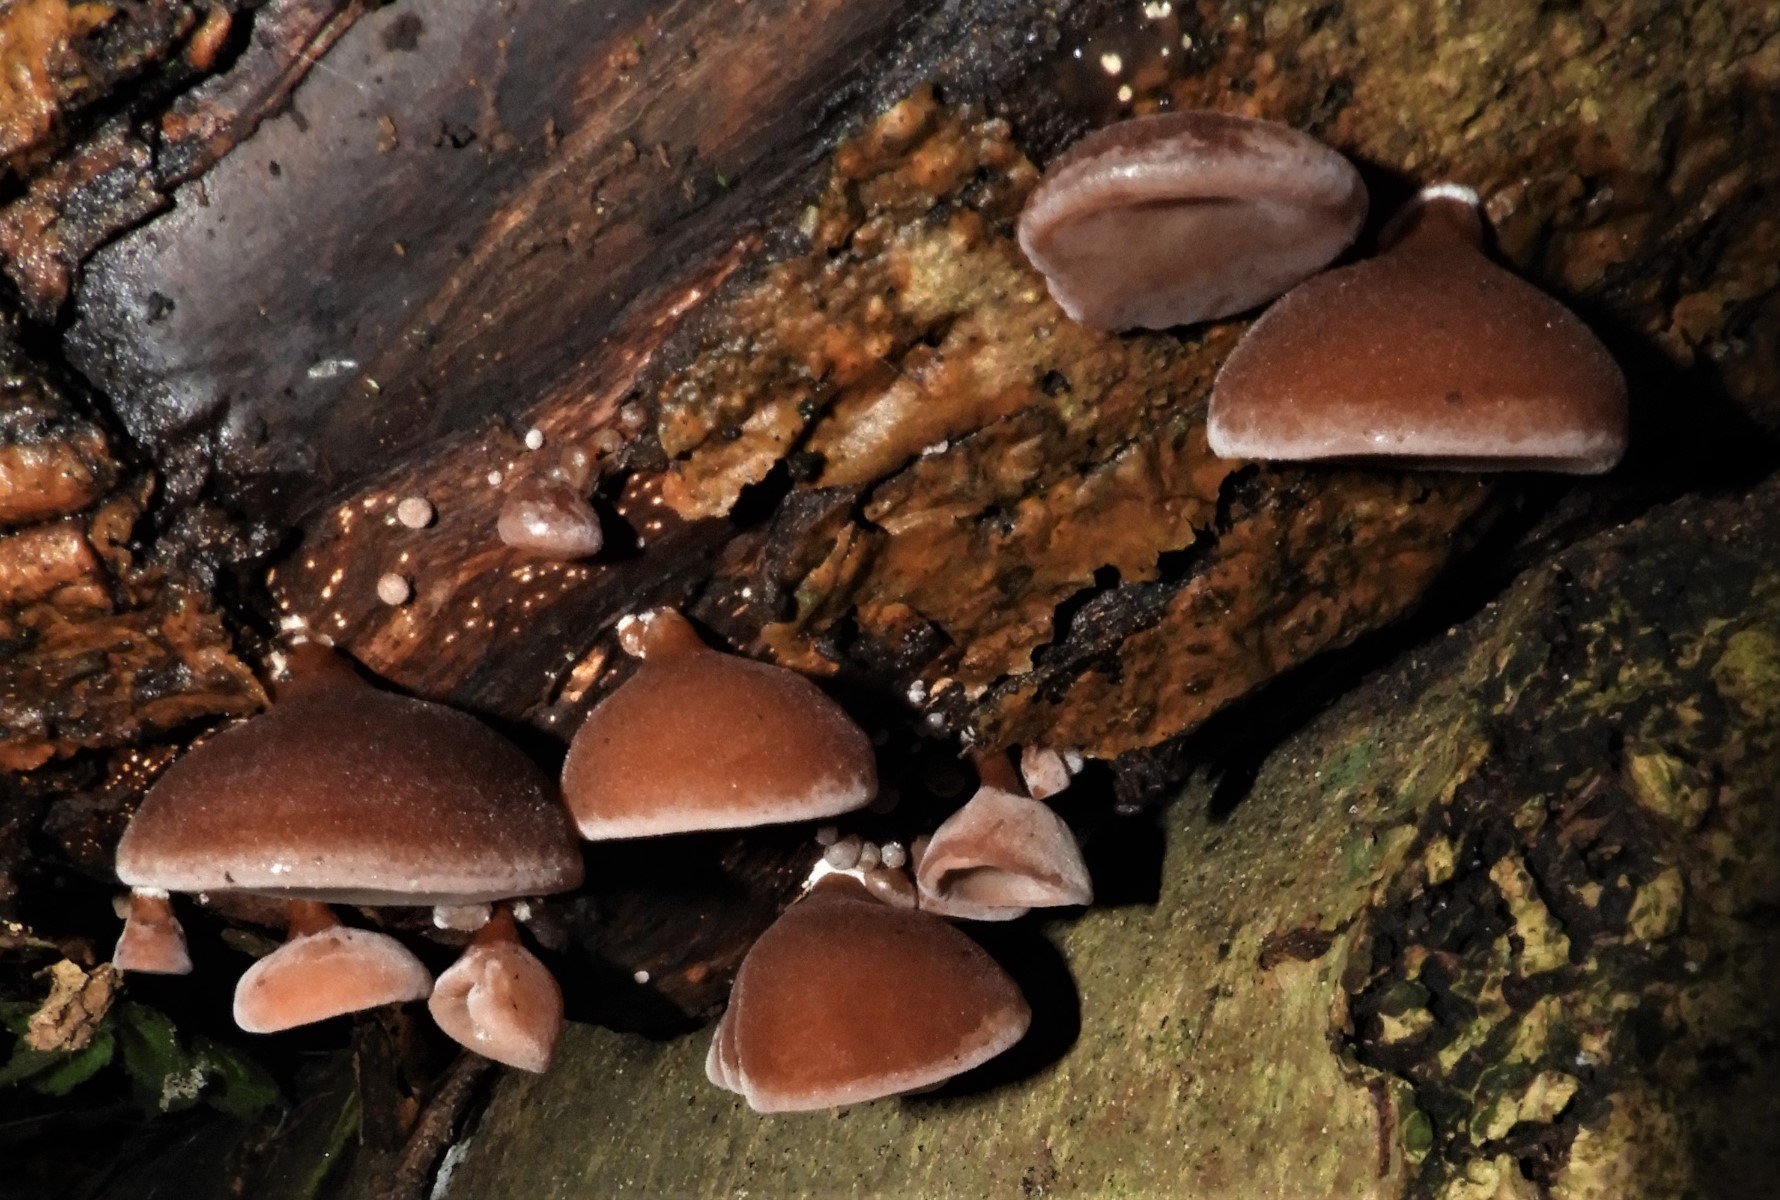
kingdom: Fungi
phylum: Basidiomycota
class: Agaricomycetes
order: Auriculariales
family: Auriculariaceae
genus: Auricularia
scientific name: Auricularia auricula-judae
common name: almindelig judasøre
